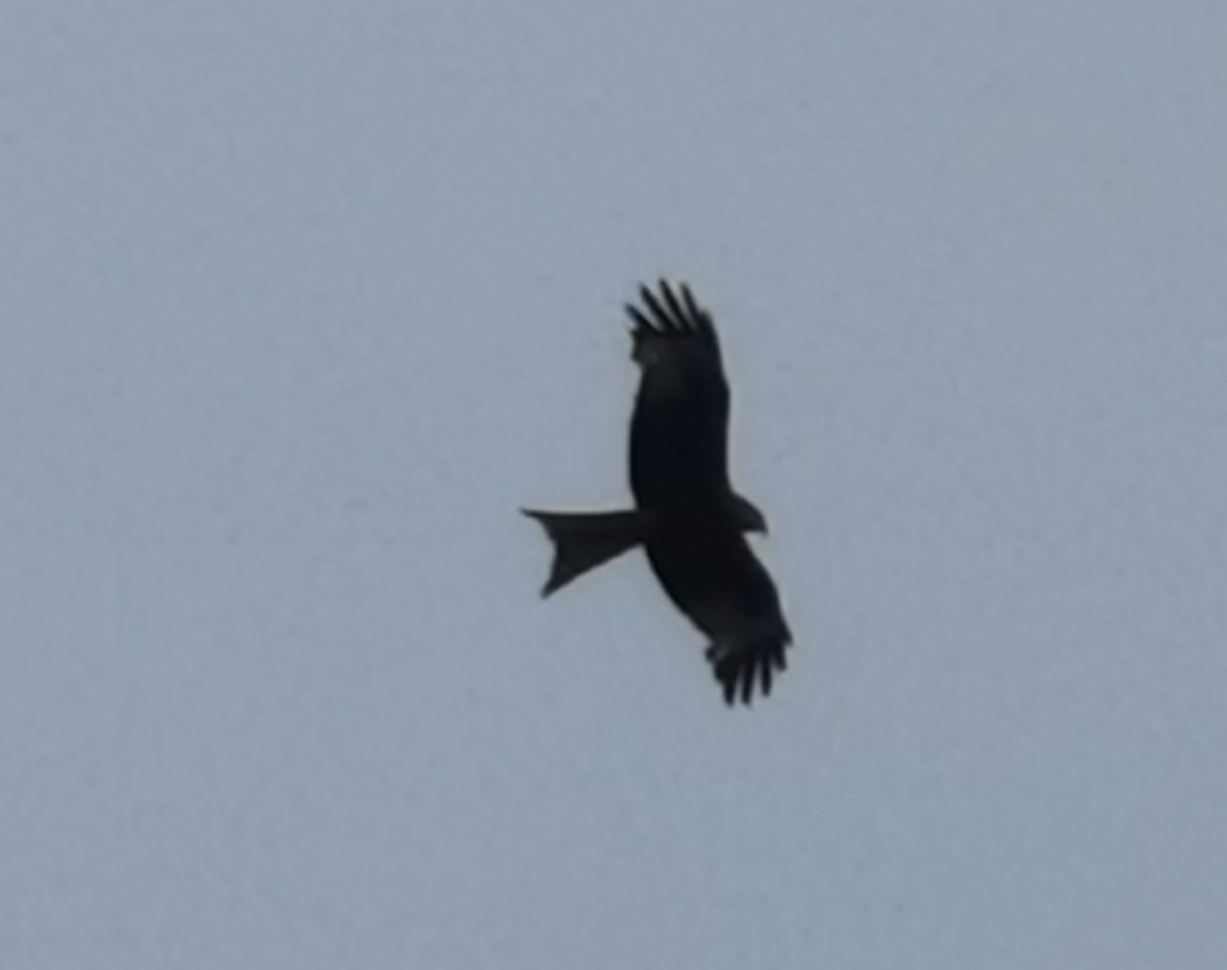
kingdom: Animalia
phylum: Chordata
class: Aves
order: Accipitriformes
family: Accipitridae
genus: Milvus
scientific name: Milvus milvus
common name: Rød glente
